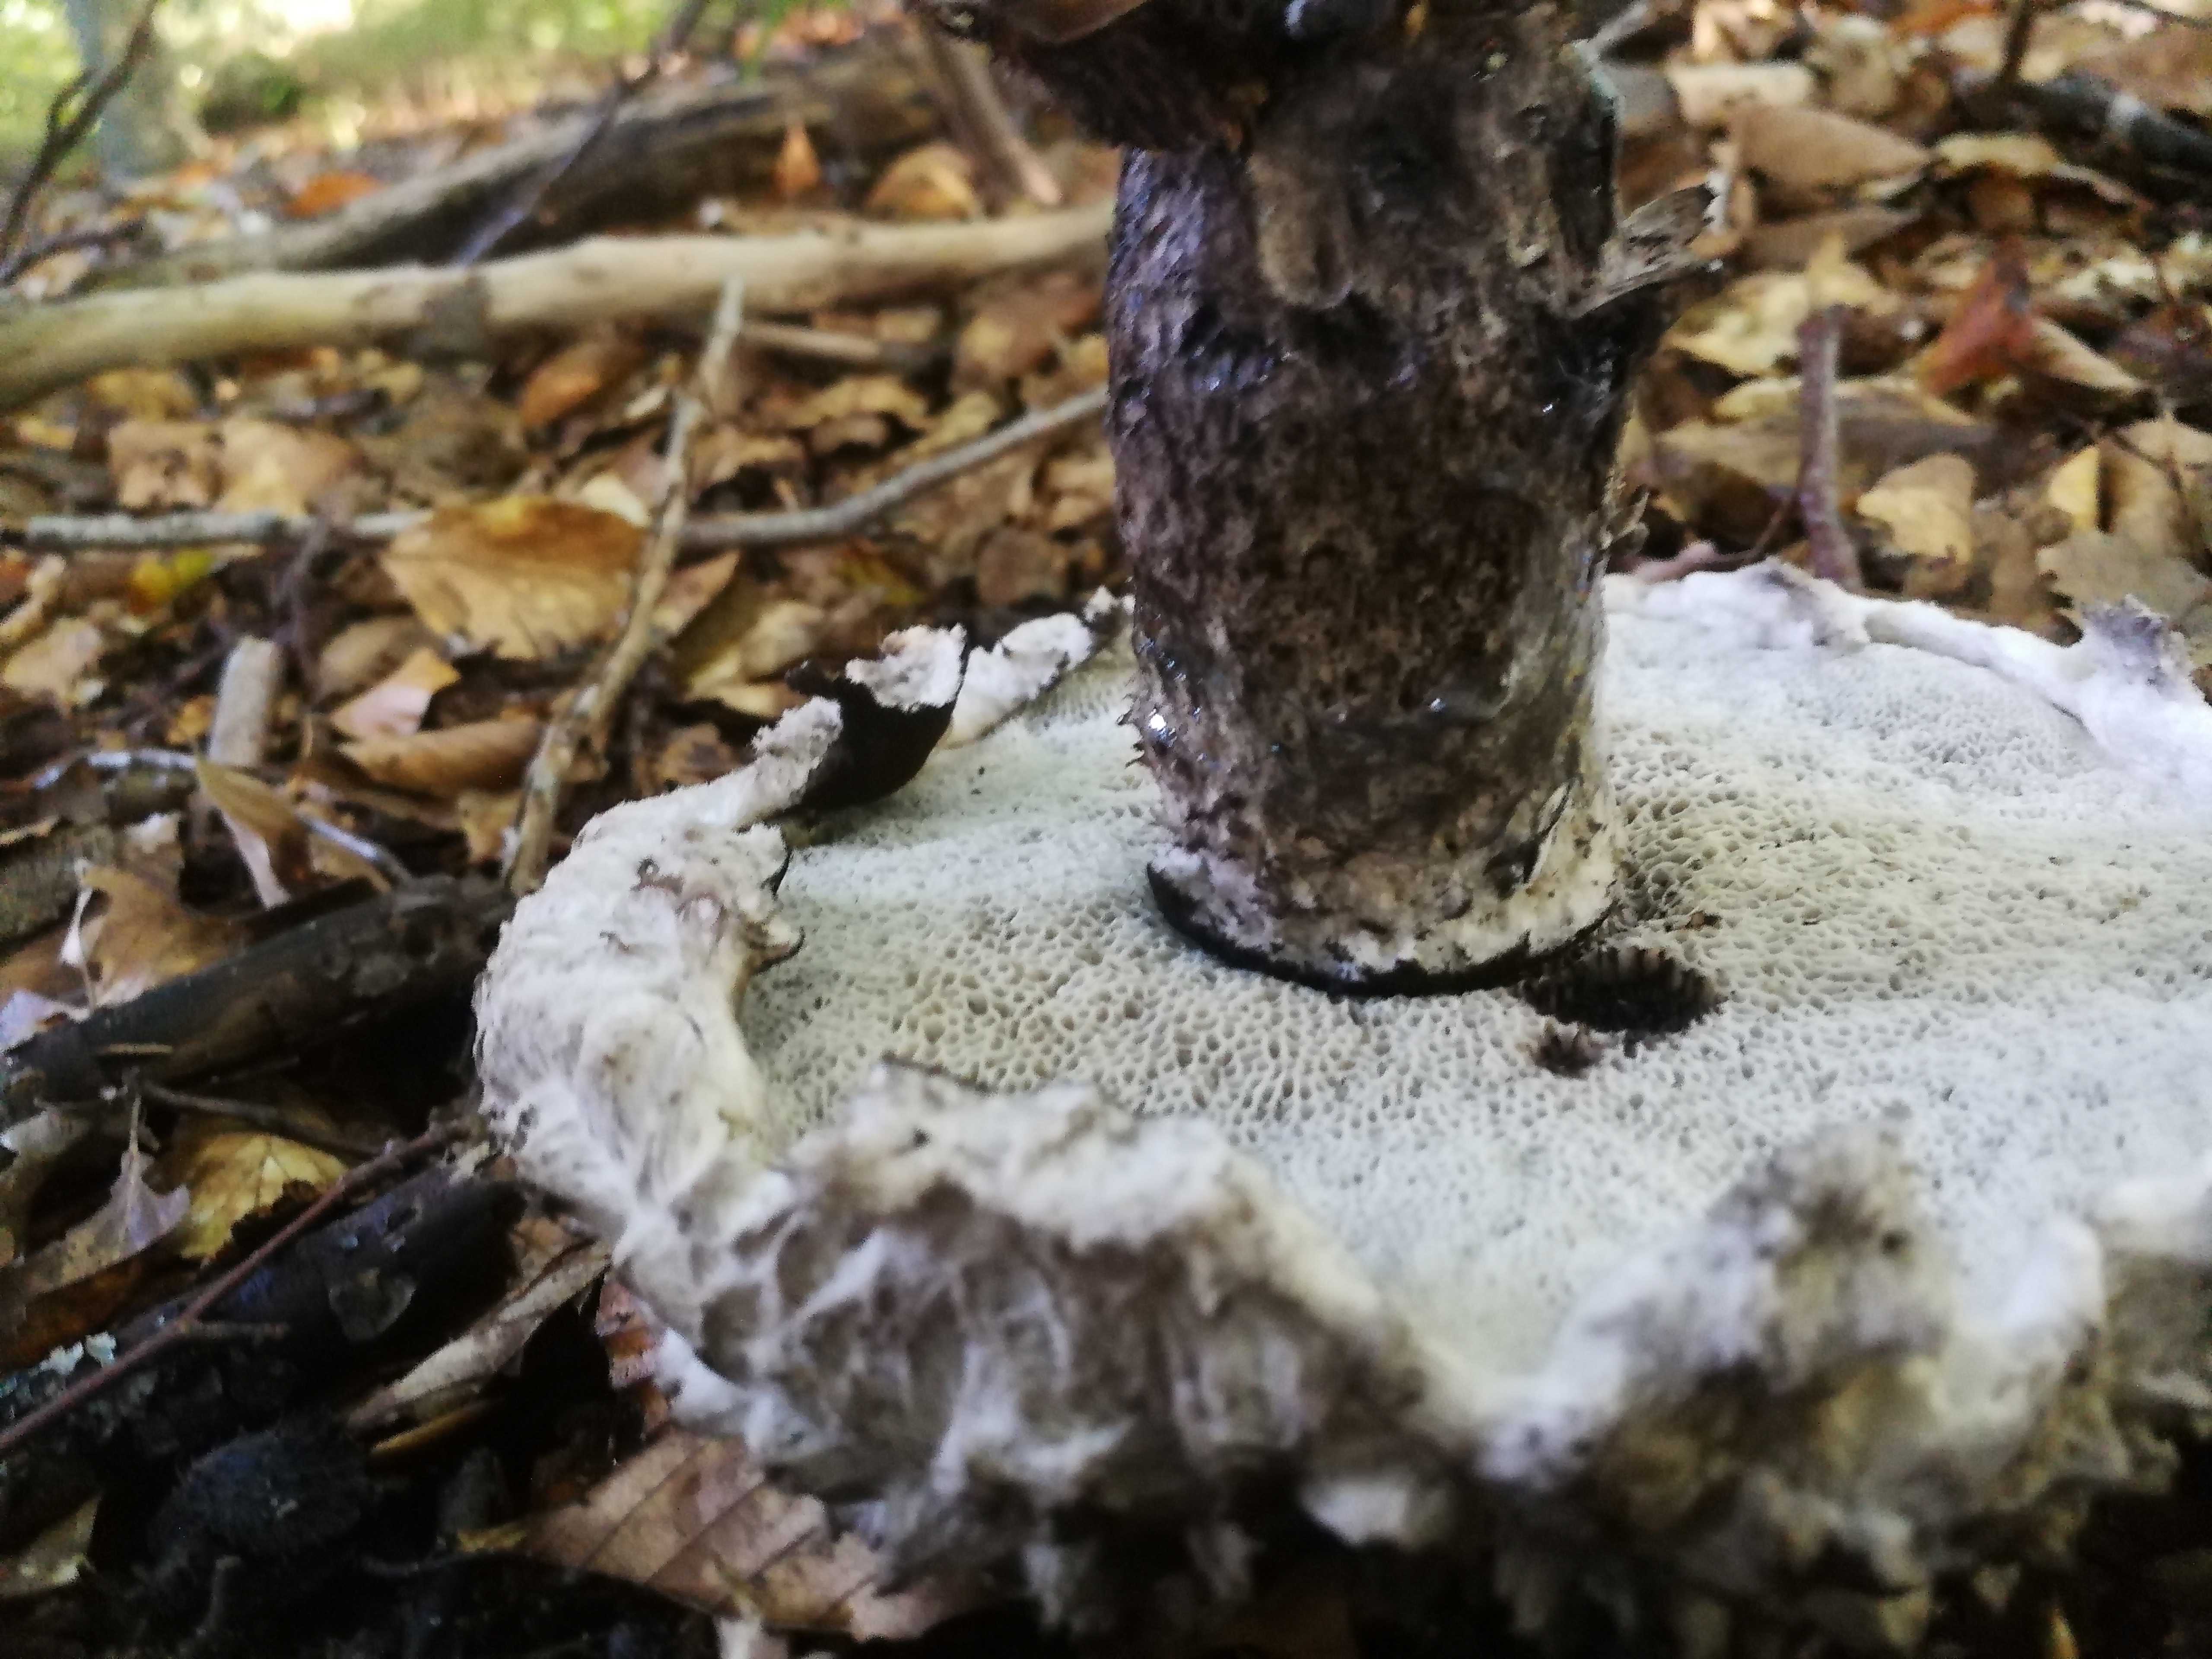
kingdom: Fungi
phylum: Basidiomycota
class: Agaricomycetes
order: Boletales
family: Boletaceae
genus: Strobilomyces
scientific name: Strobilomyces strobilaceus
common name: koglerørhat
